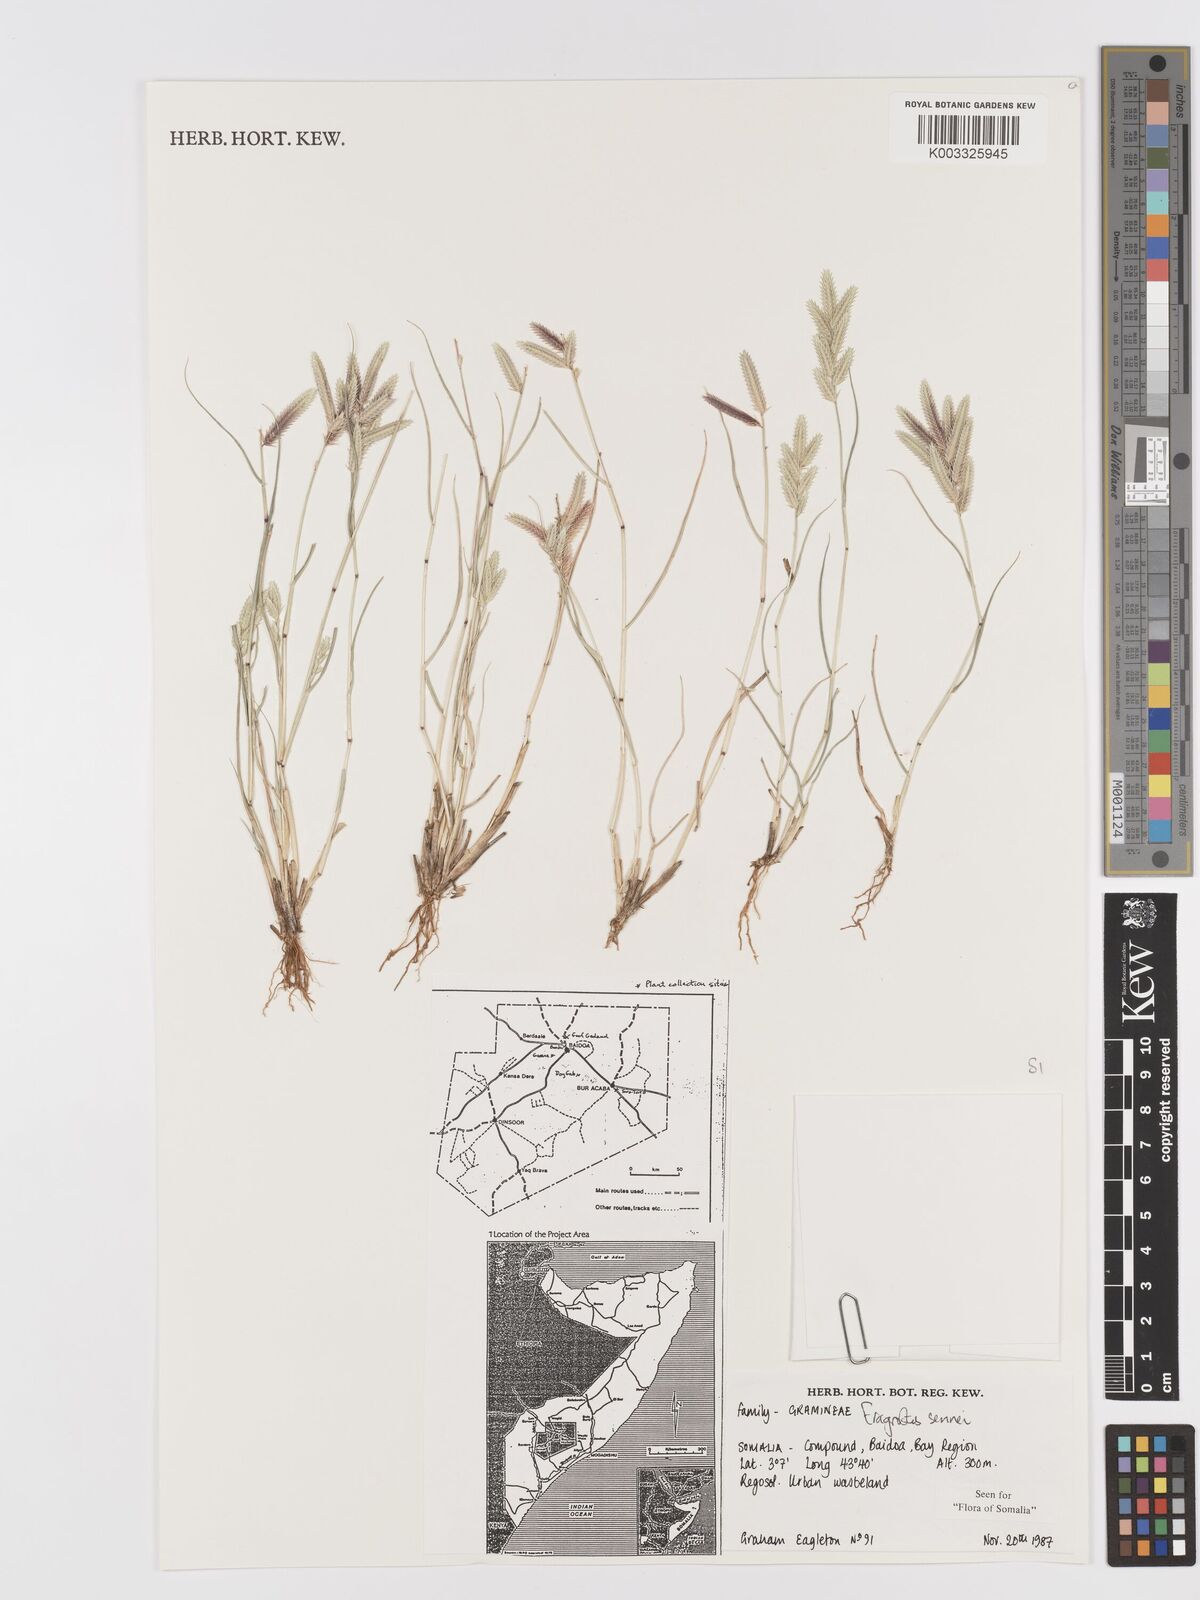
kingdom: Plantae
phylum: Tracheophyta
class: Liliopsida
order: Poales
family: Poaceae
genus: Eragrostis
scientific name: Eragrostis sennii
